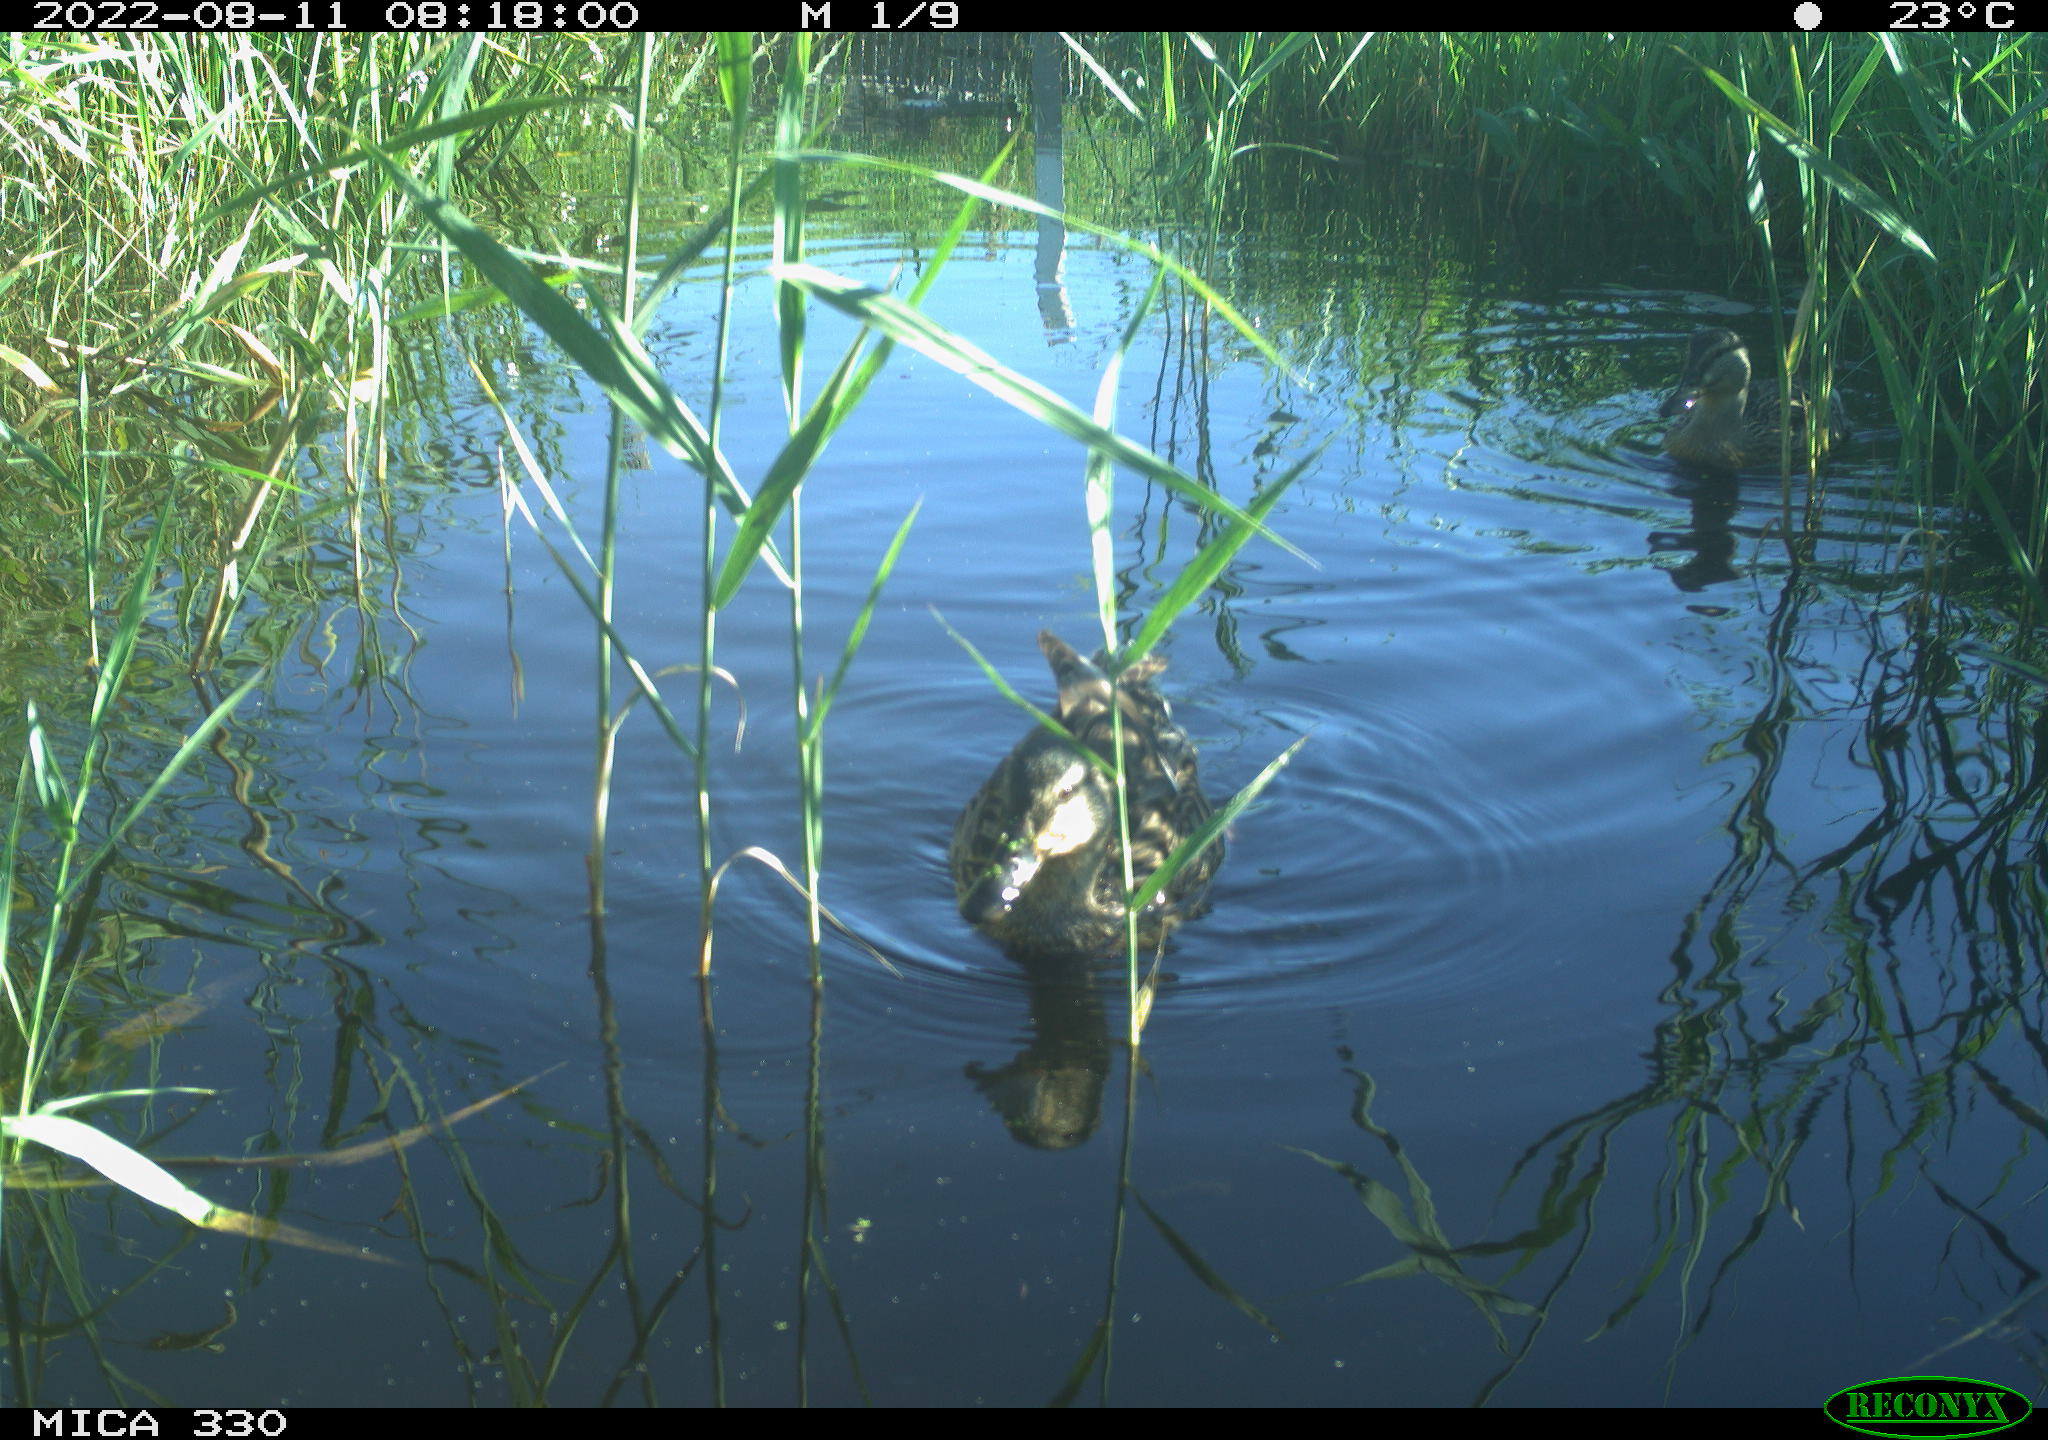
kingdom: Animalia
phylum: Chordata
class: Aves
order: Anseriformes
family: Anatidae
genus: Mareca
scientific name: Mareca strepera
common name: Gadwall
